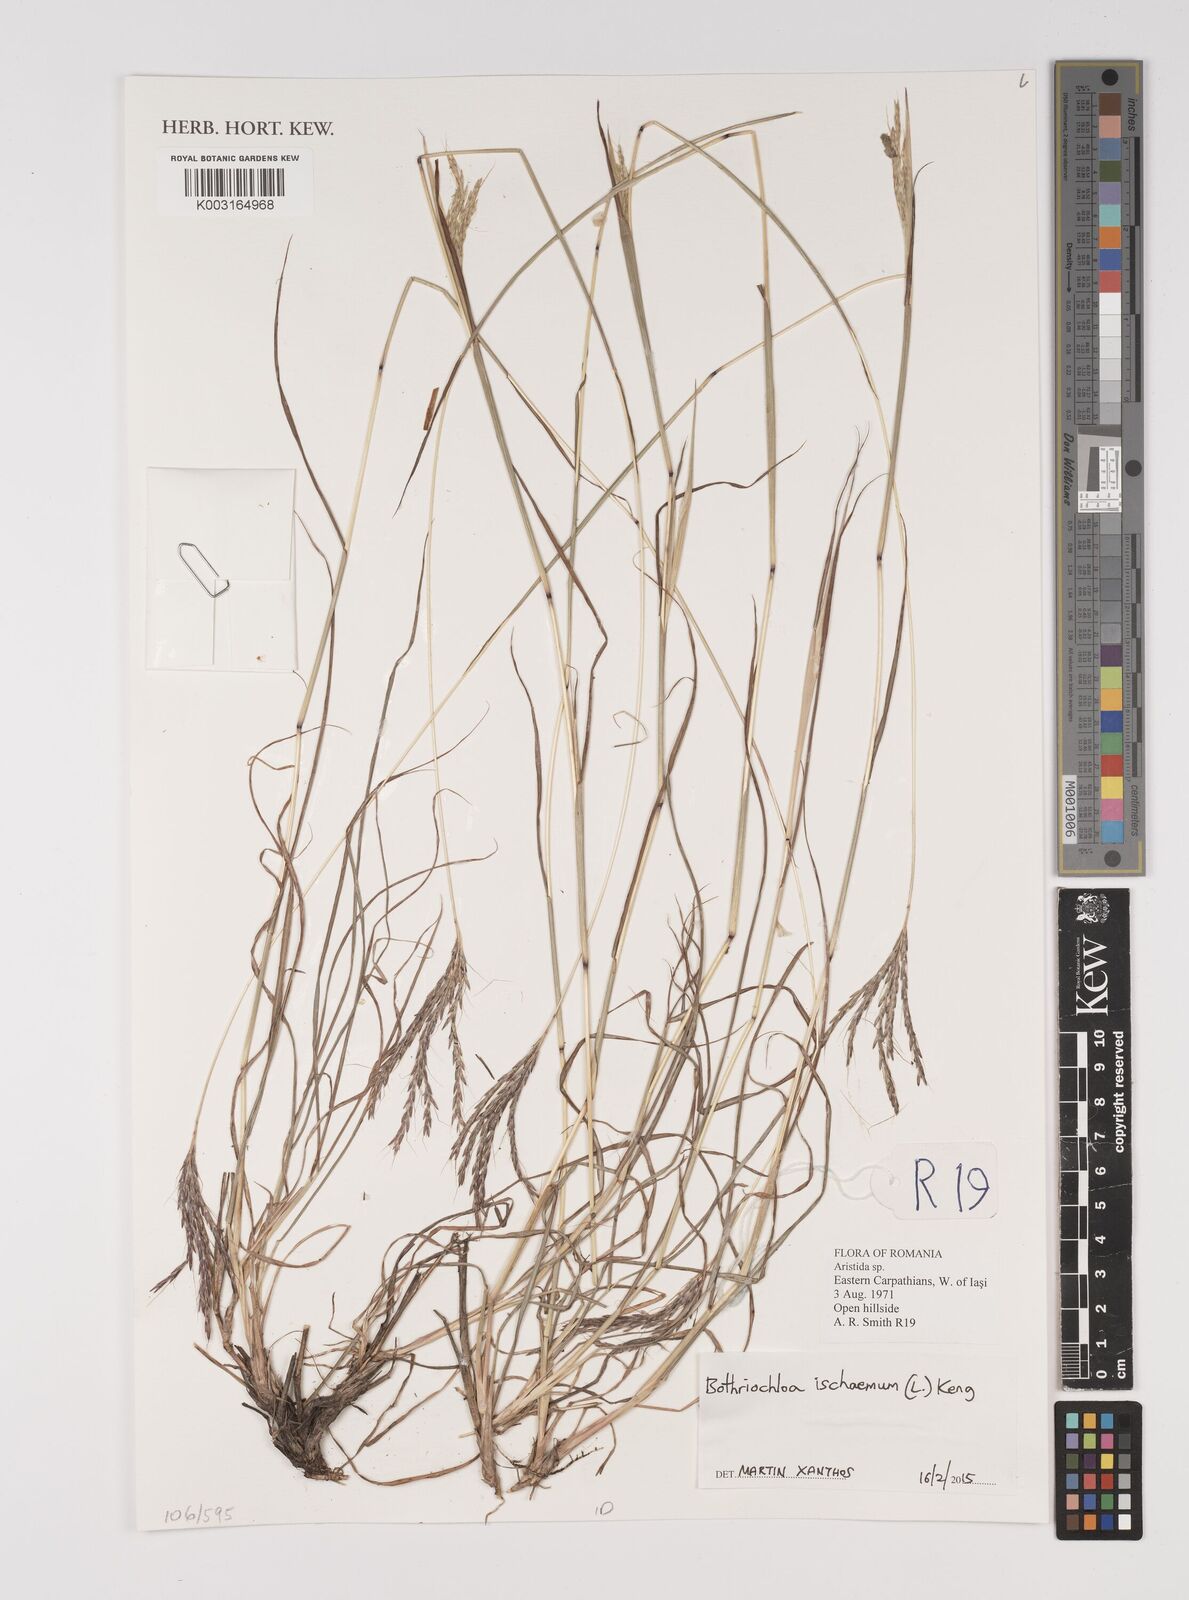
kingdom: Plantae
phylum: Tracheophyta
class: Liliopsida
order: Poales
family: Poaceae
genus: Bothriochloa
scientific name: Bothriochloa ischaemum
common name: Yellow bluestem
